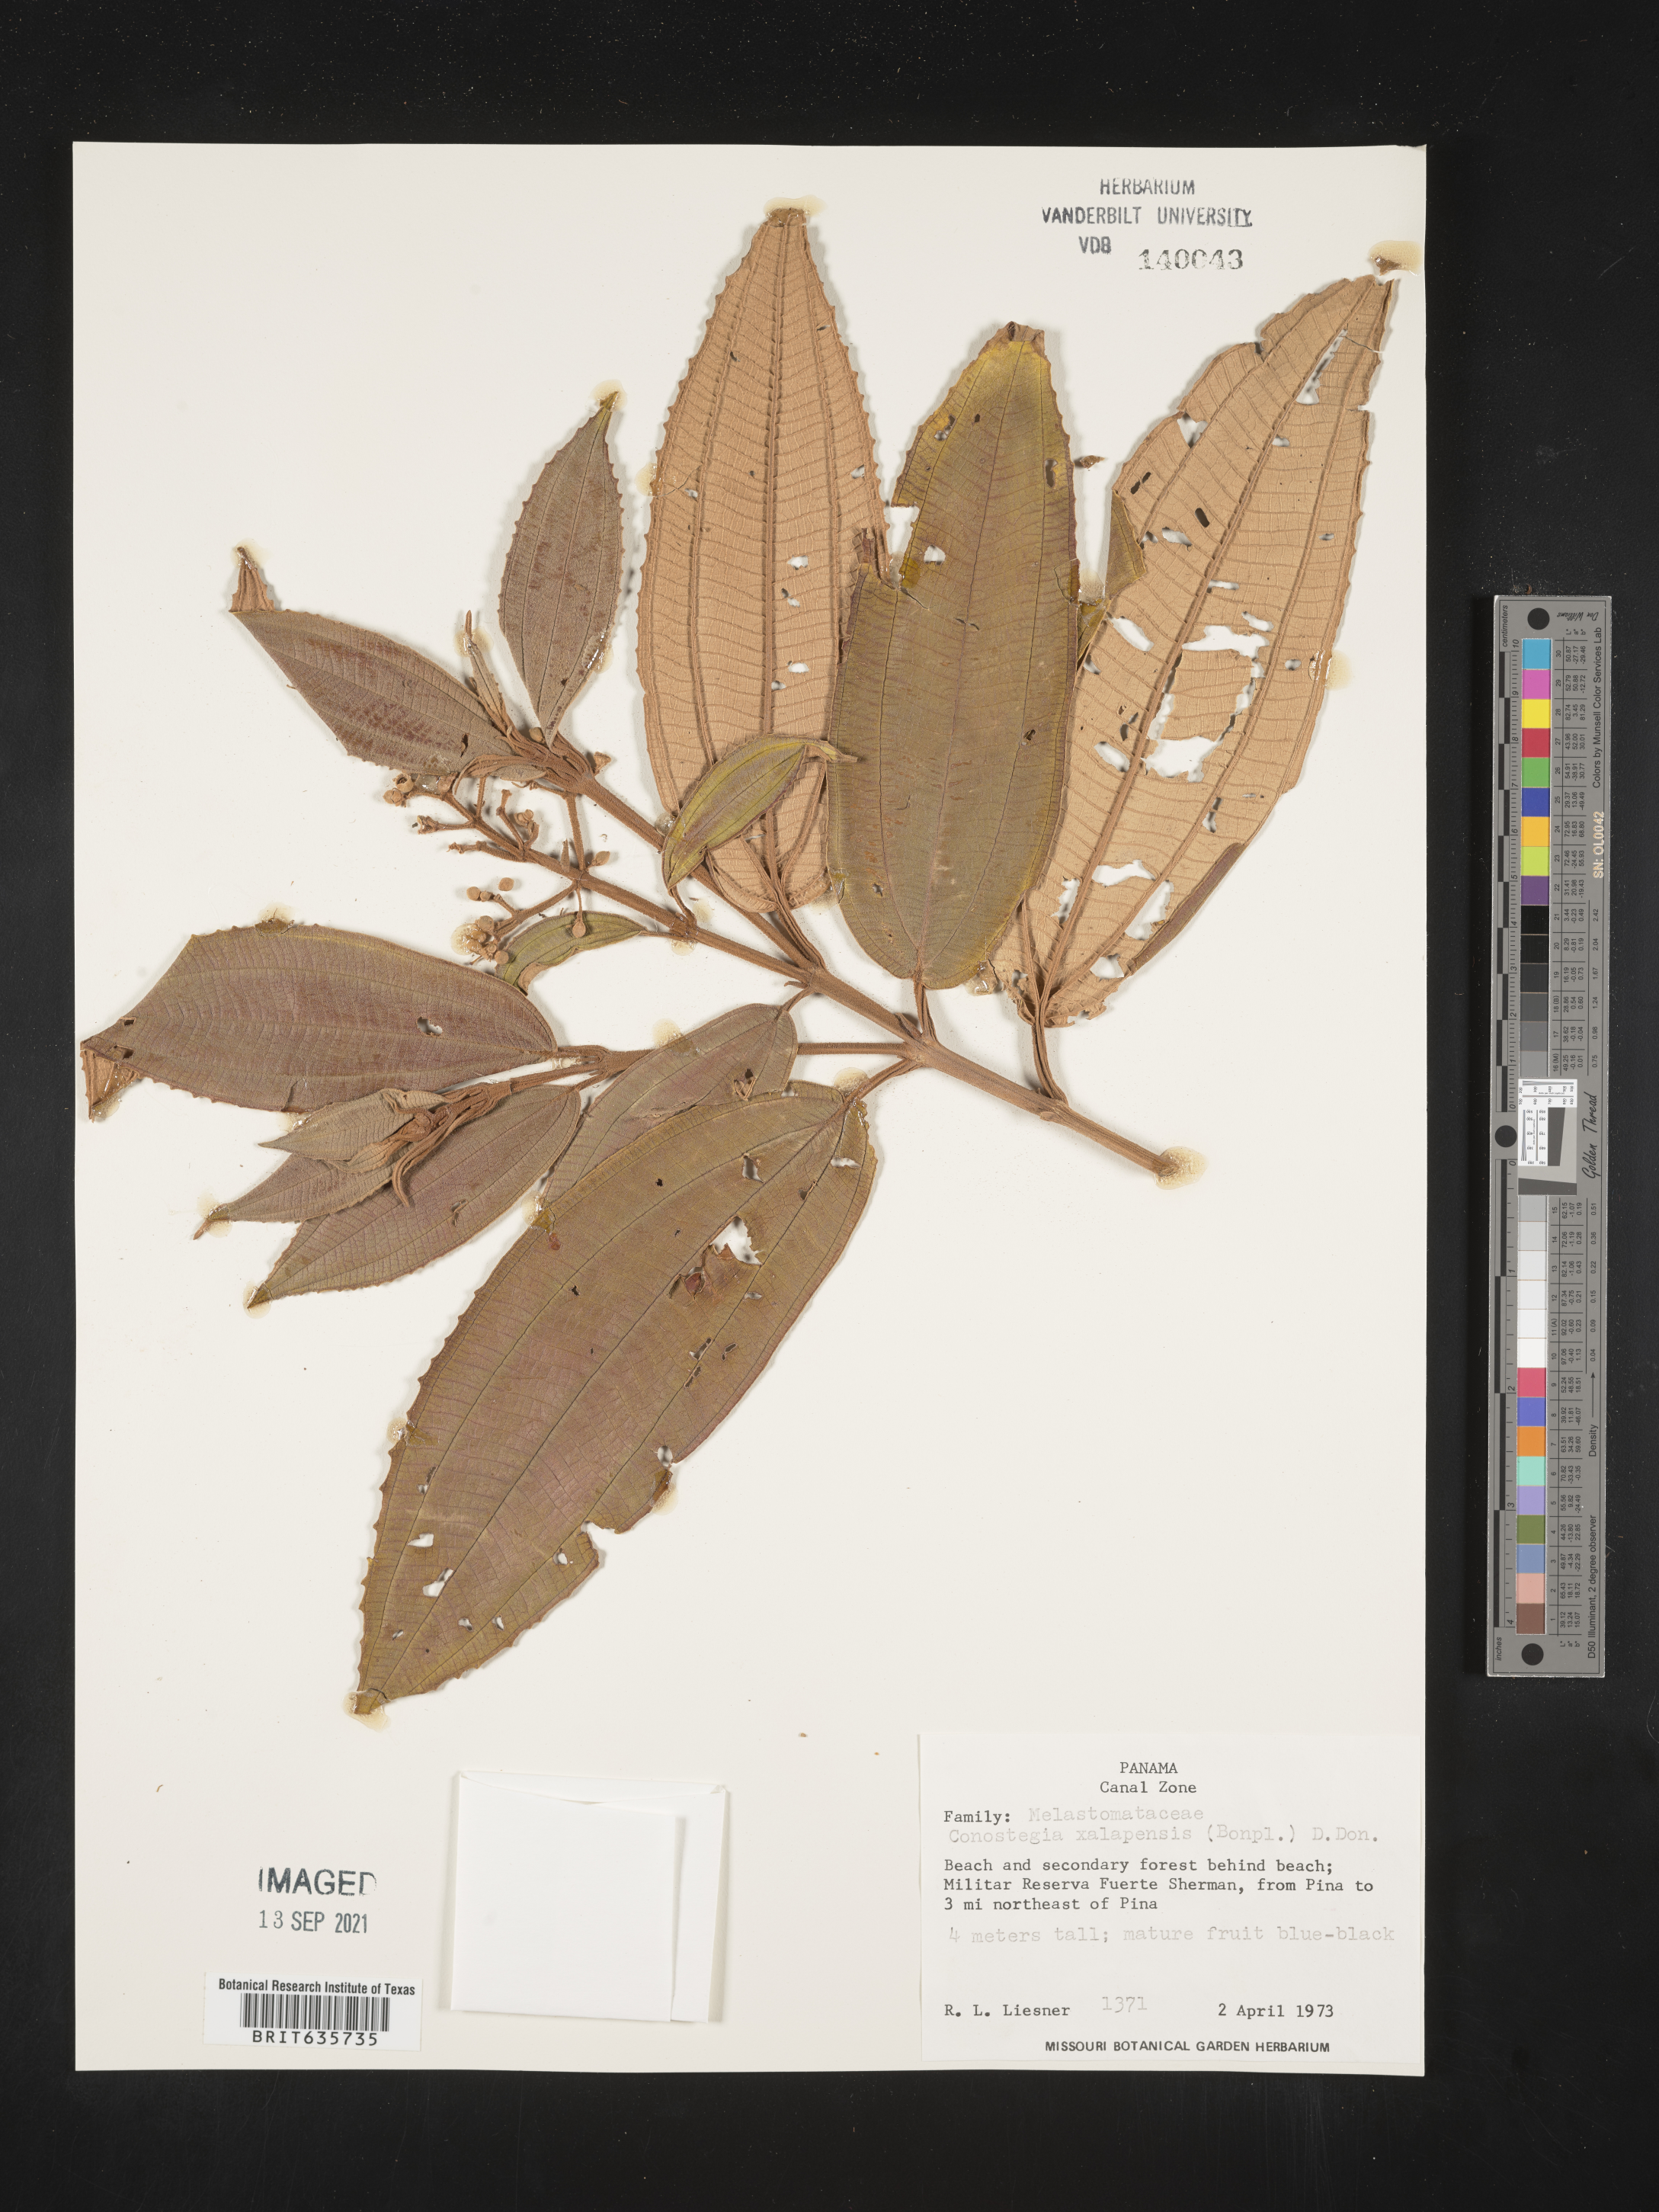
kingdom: Plantae
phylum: Tracheophyta
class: Magnoliopsida
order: Myrtales
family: Melastomataceae
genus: Miconia
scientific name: Miconia
